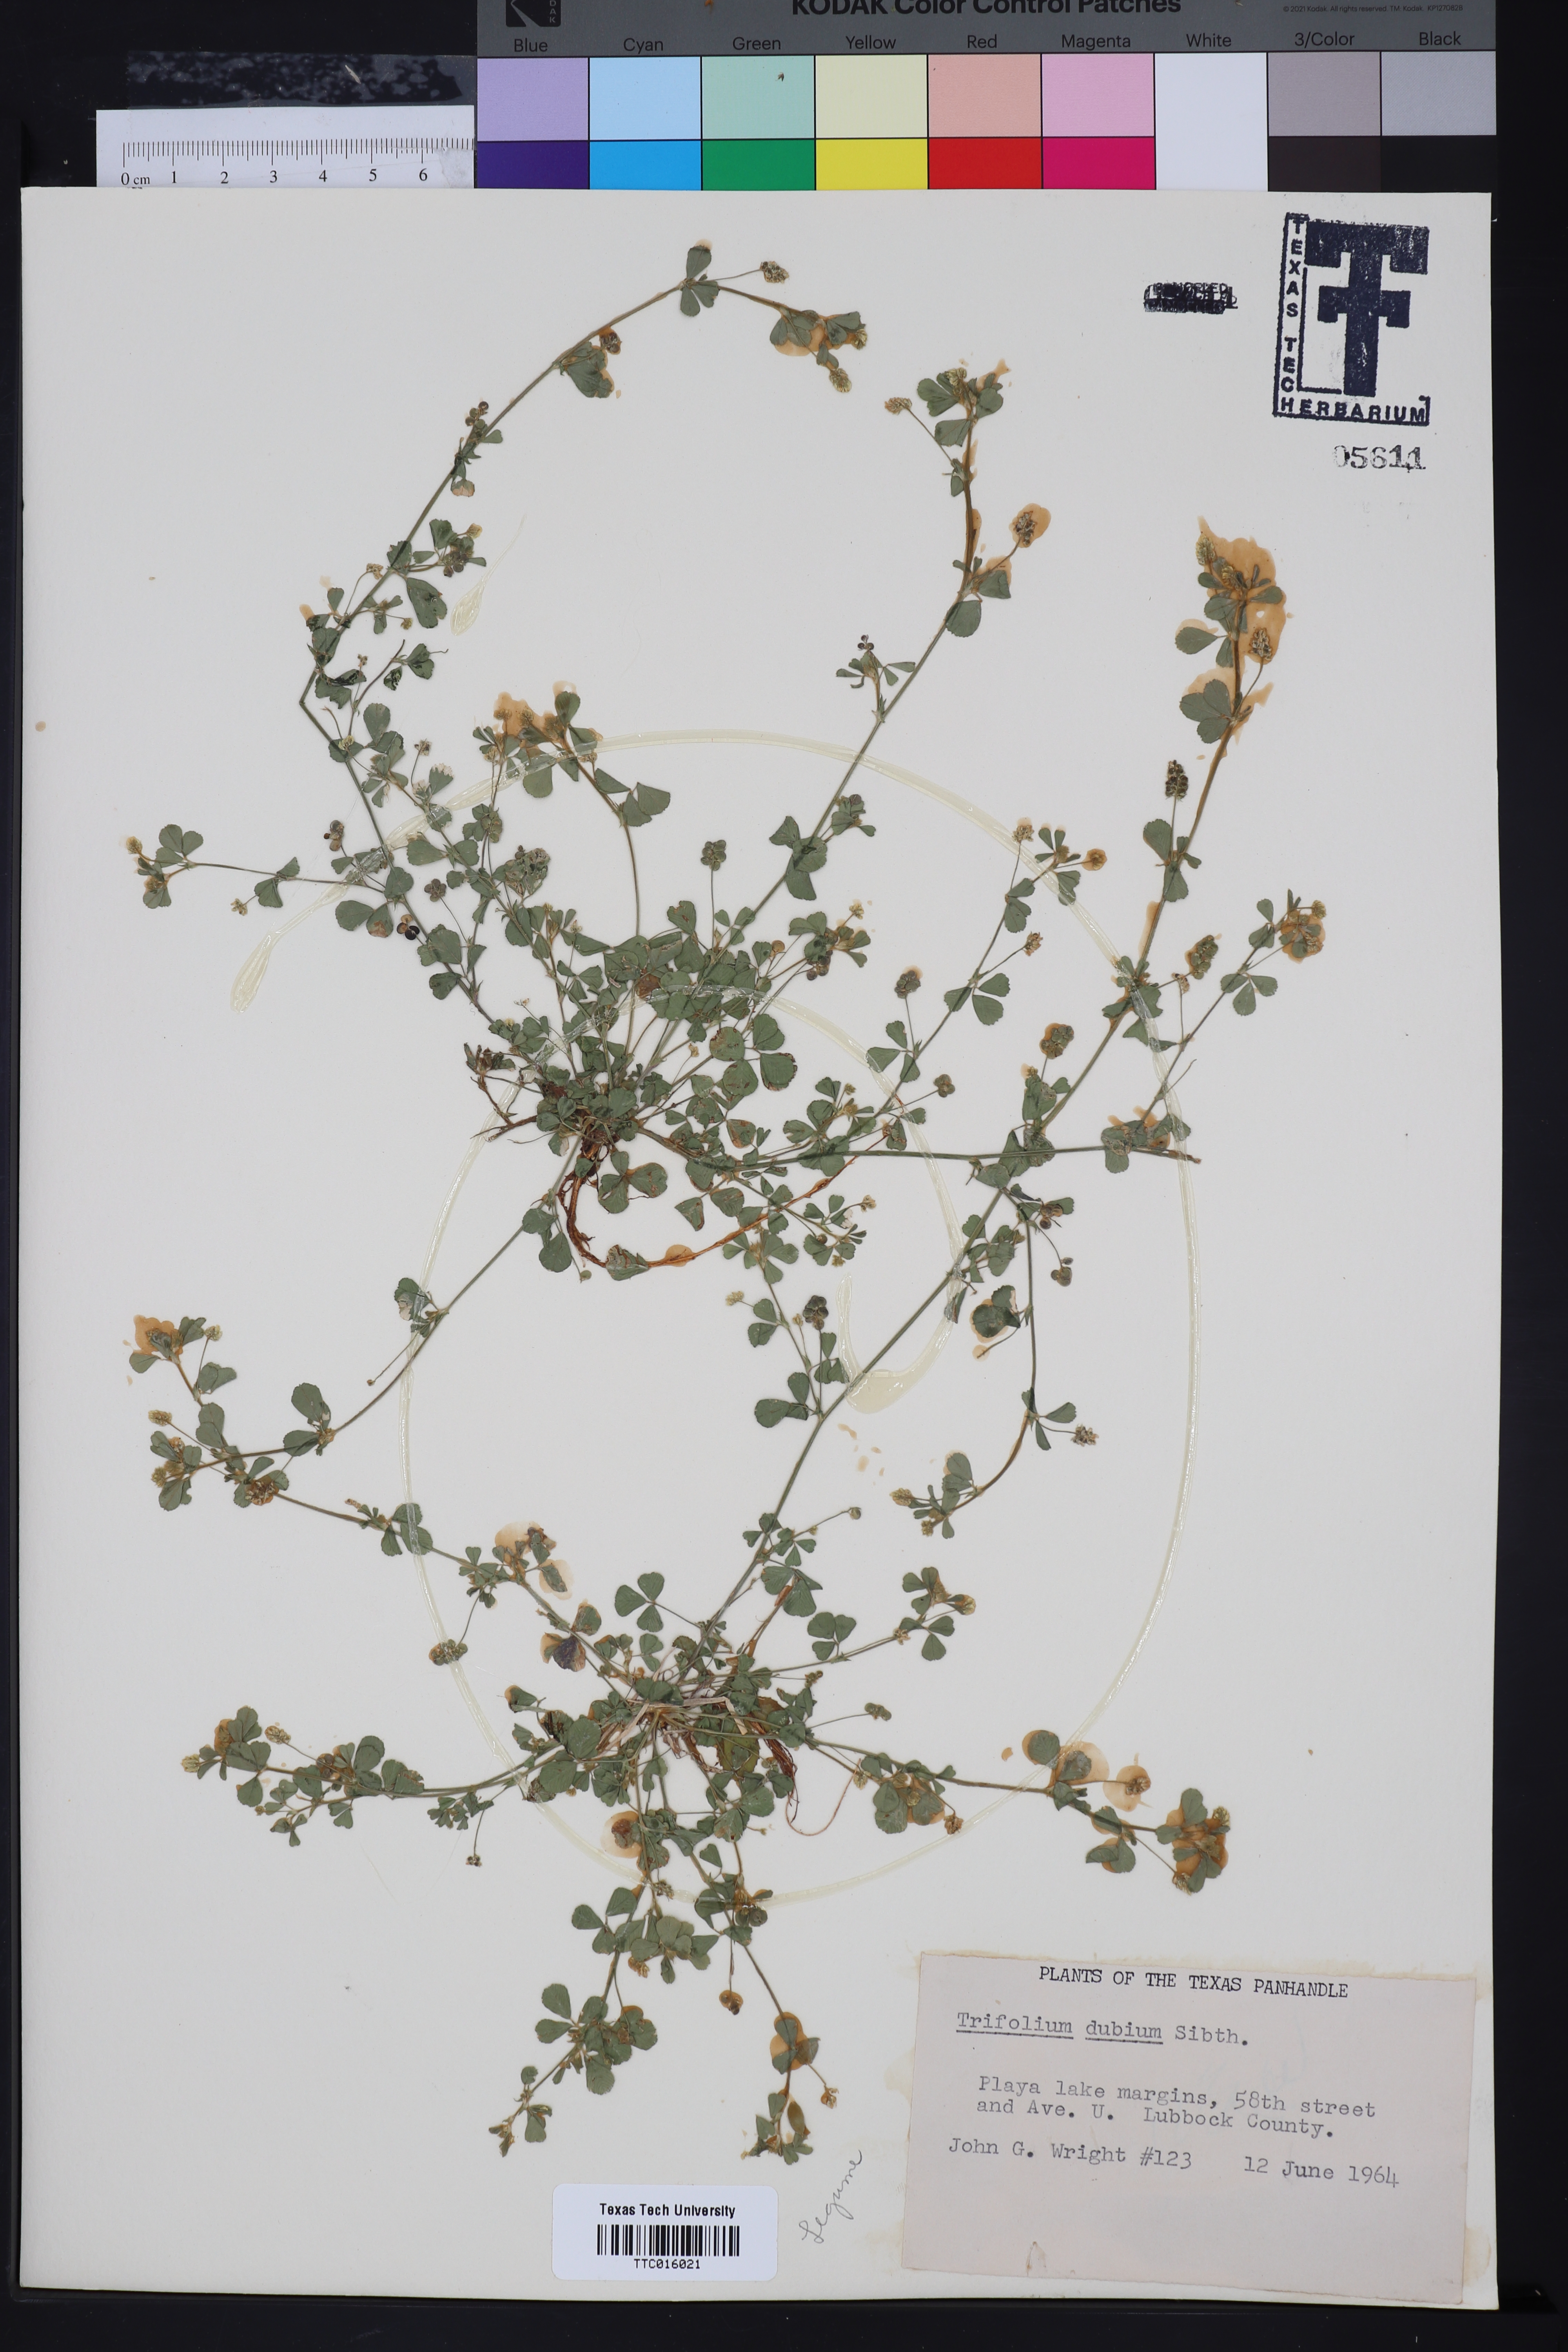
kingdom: Plantae
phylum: Tracheophyta
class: Magnoliopsida
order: Fabales
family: Fabaceae
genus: Trifolium
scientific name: Trifolium dubium
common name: Suckling clover
